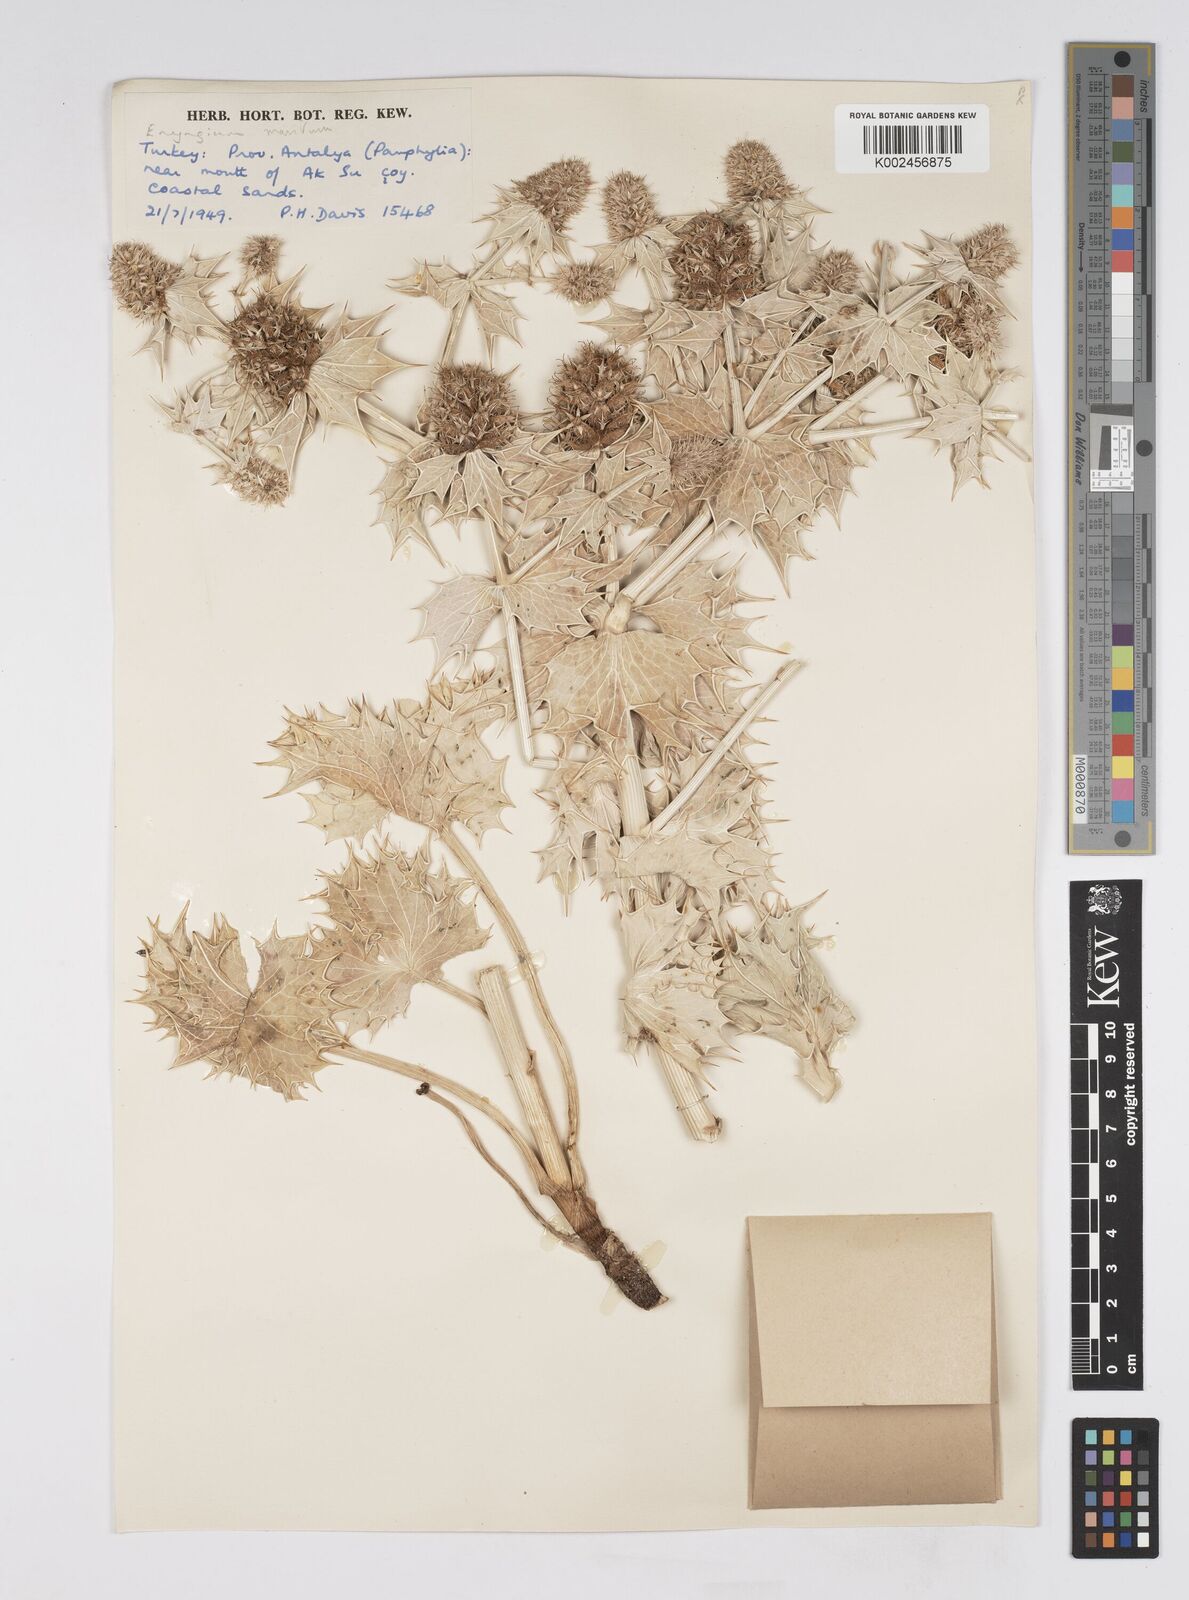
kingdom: Plantae
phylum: Tracheophyta
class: Magnoliopsida
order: Apiales
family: Apiaceae
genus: Eryngium
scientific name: Eryngium maritimum
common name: Sea-holly
